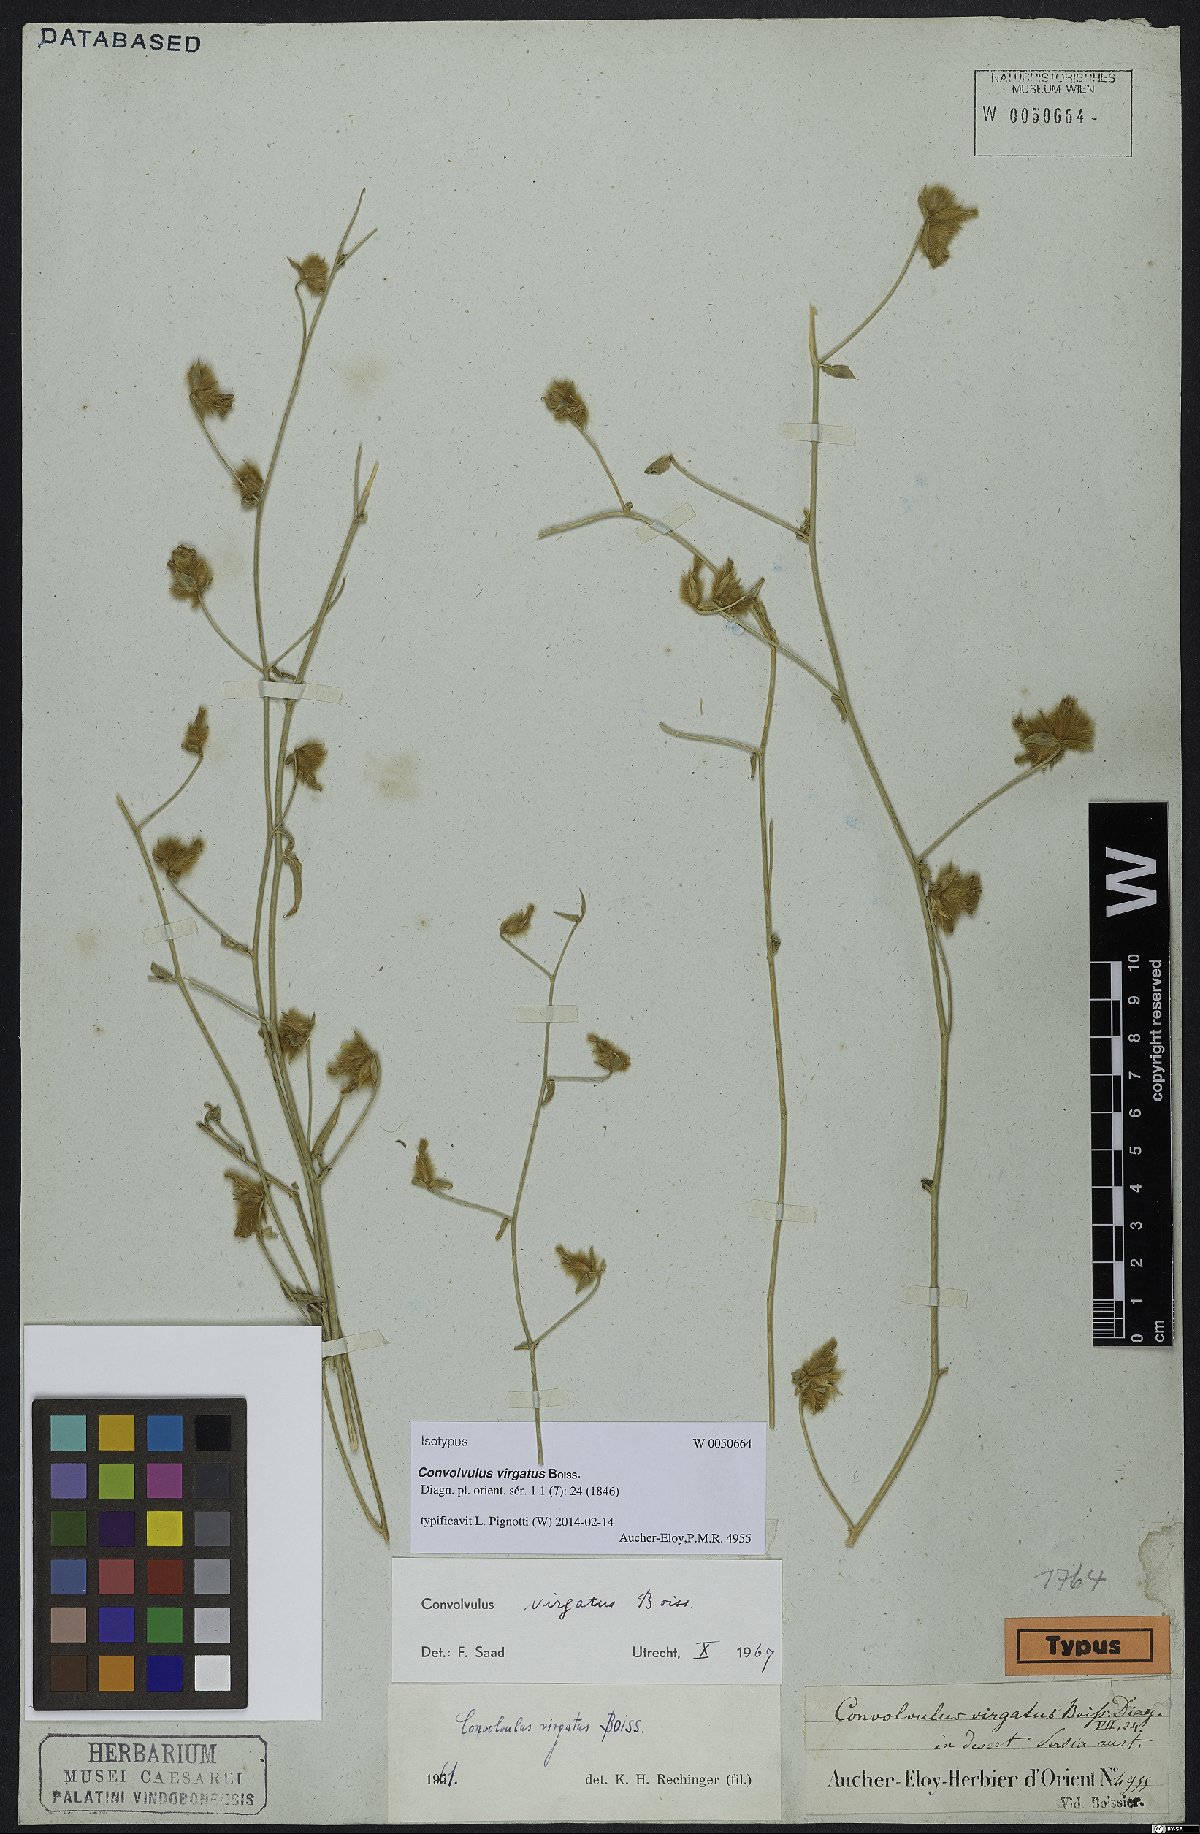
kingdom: Plantae
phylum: Tracheophyta
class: Magnoliopsida
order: Solanales
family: Convolvulaceae
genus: Convolvulus
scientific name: Convolvulus virgatus
